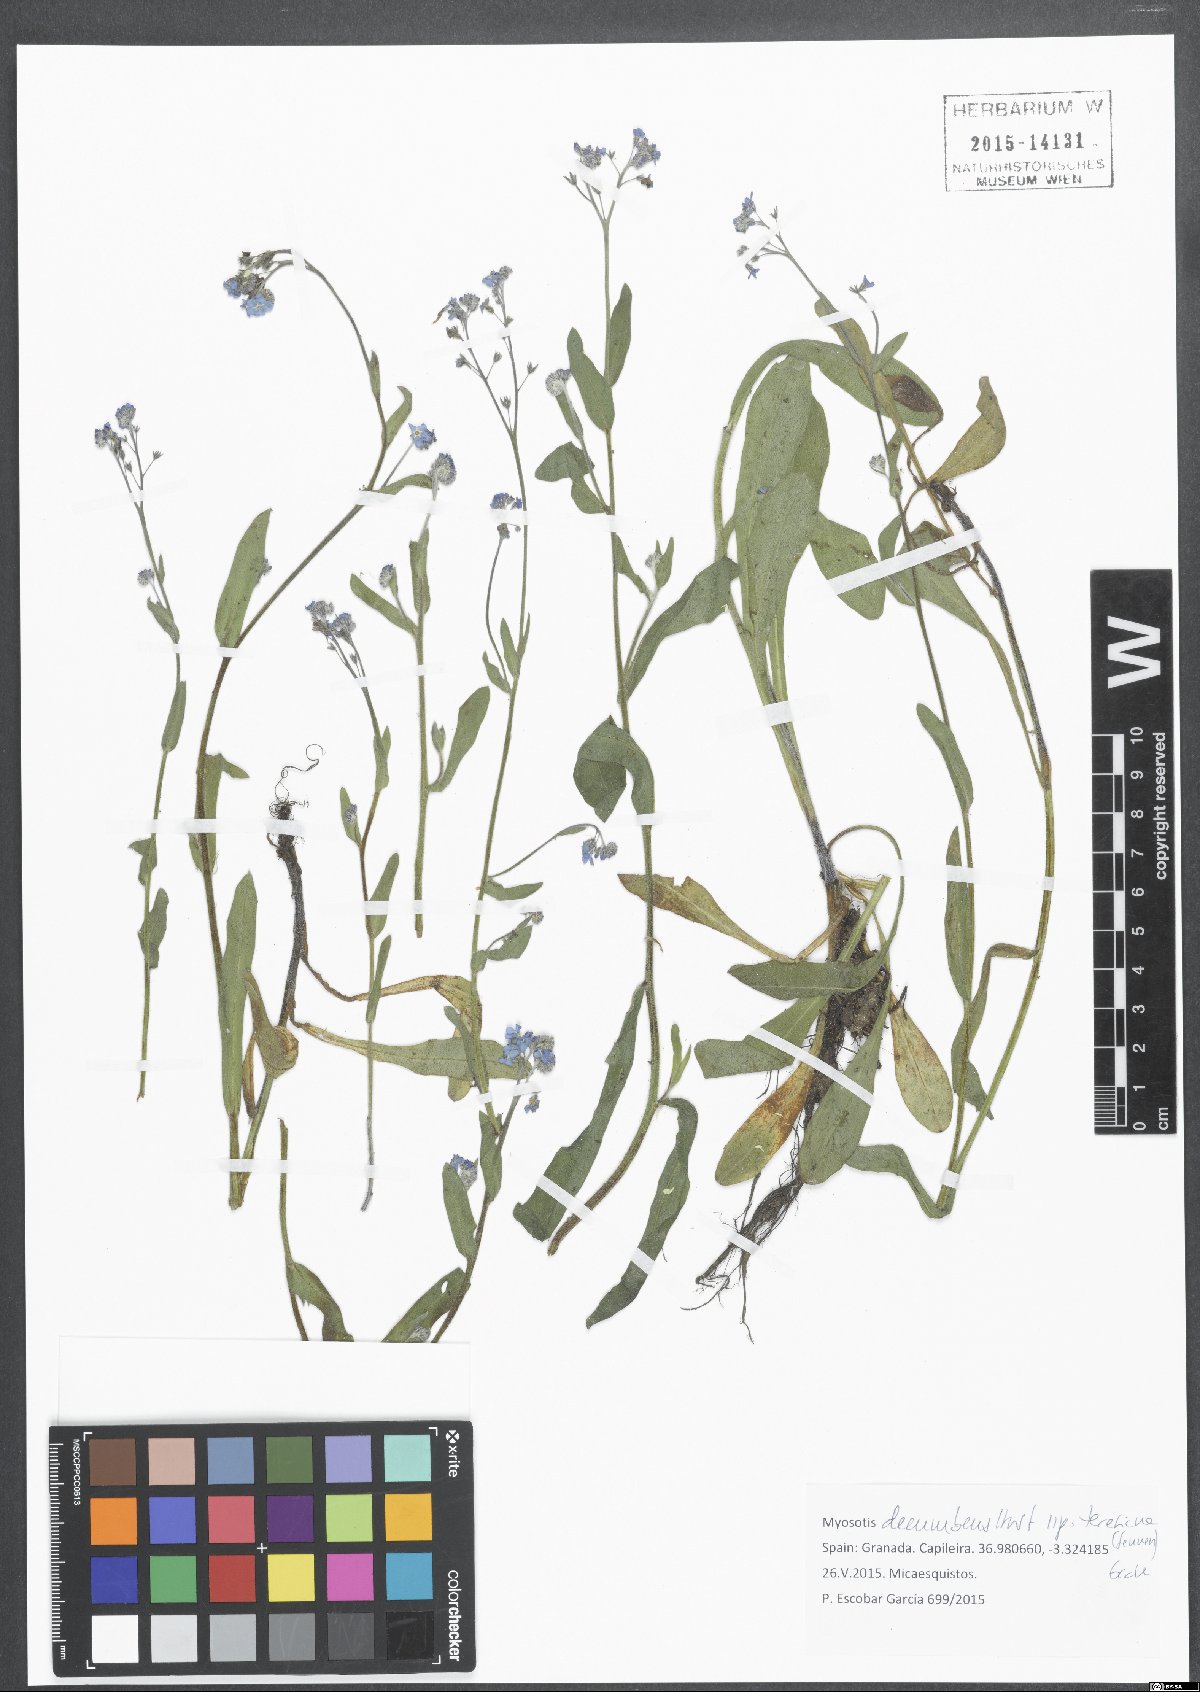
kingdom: Plantae
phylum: Tracheophyta
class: Magnoliopsida
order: Boraginales
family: Boraginaceae
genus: Myosotis
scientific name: Myosotis decumbens
